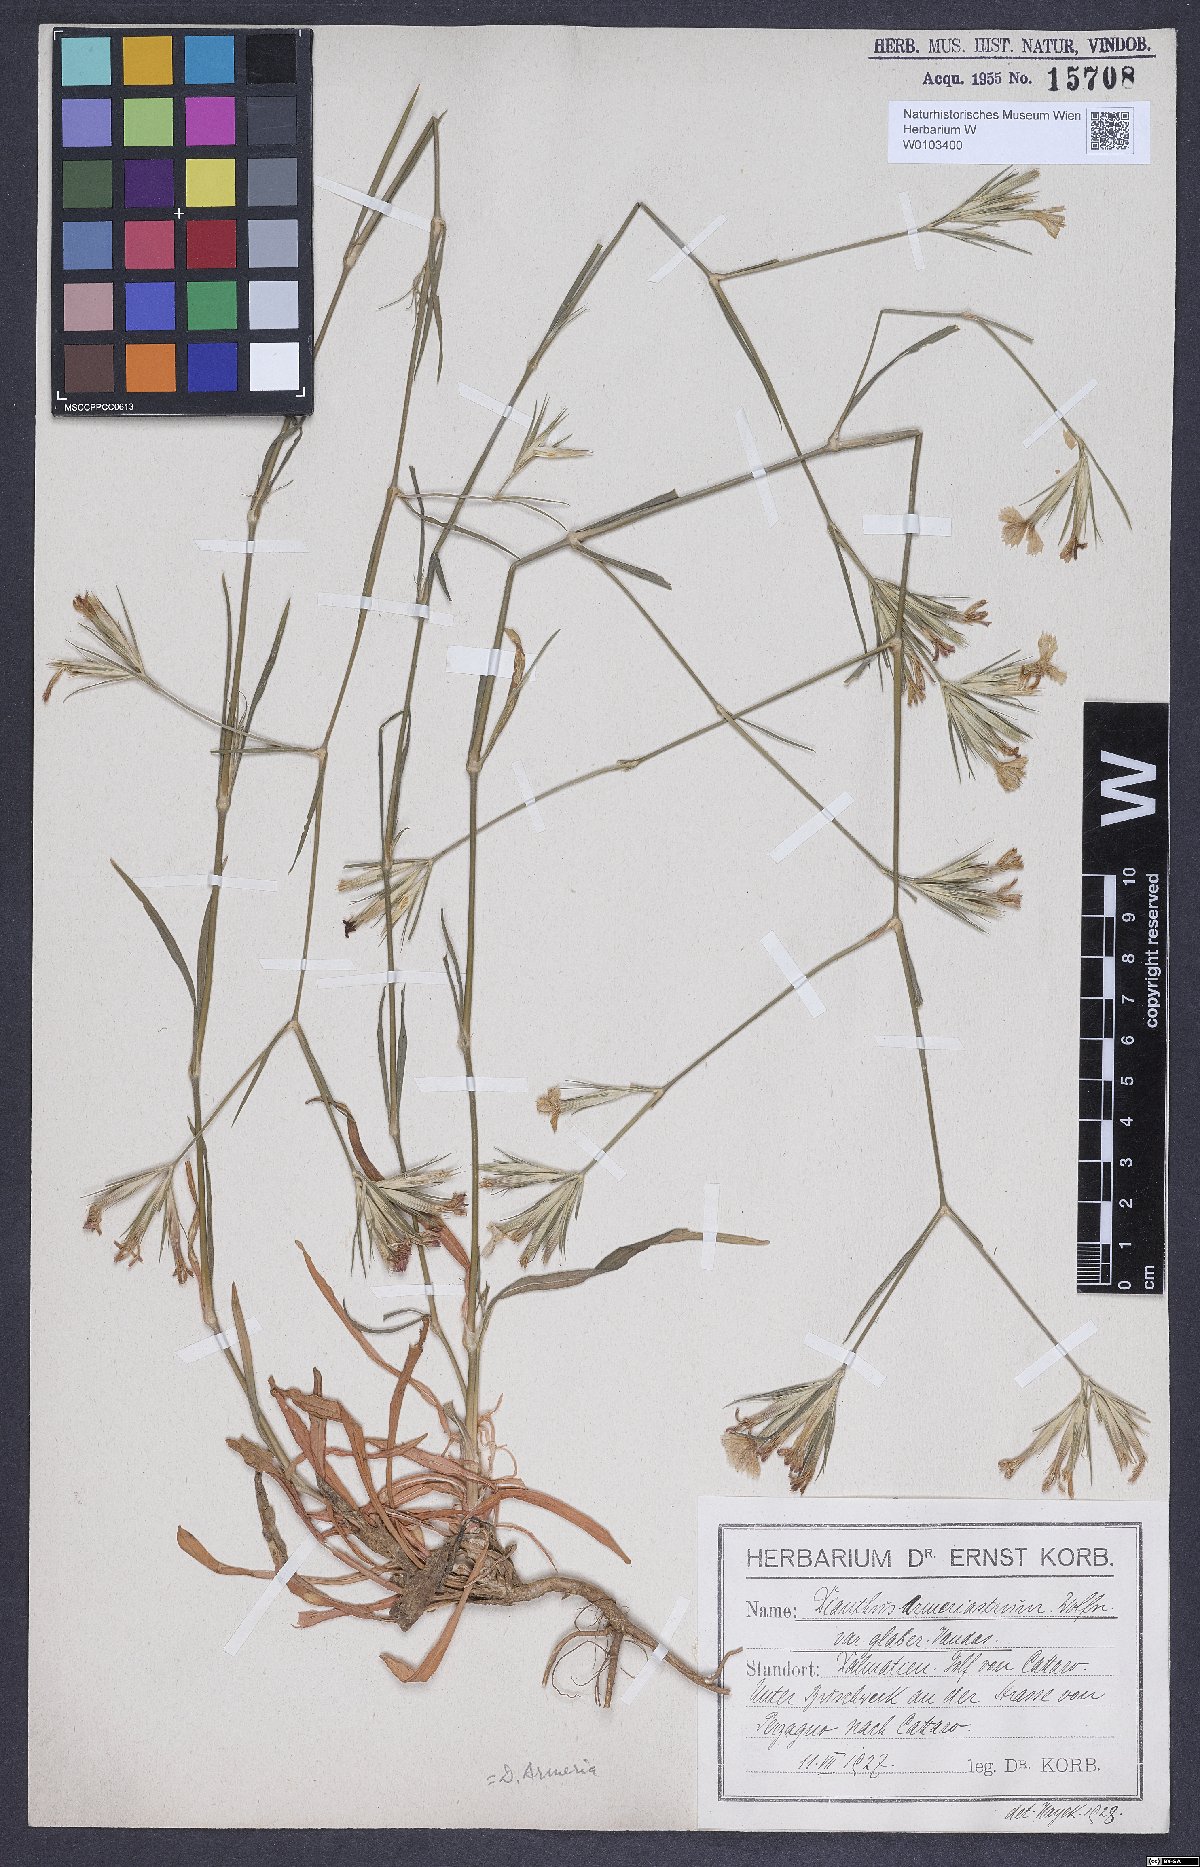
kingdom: Plantae
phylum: Tracheophyta
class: Magnoliopsida
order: Caryophyllales
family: Caryophyllaceae
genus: Dianthus
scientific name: Dianthus corymbosus
